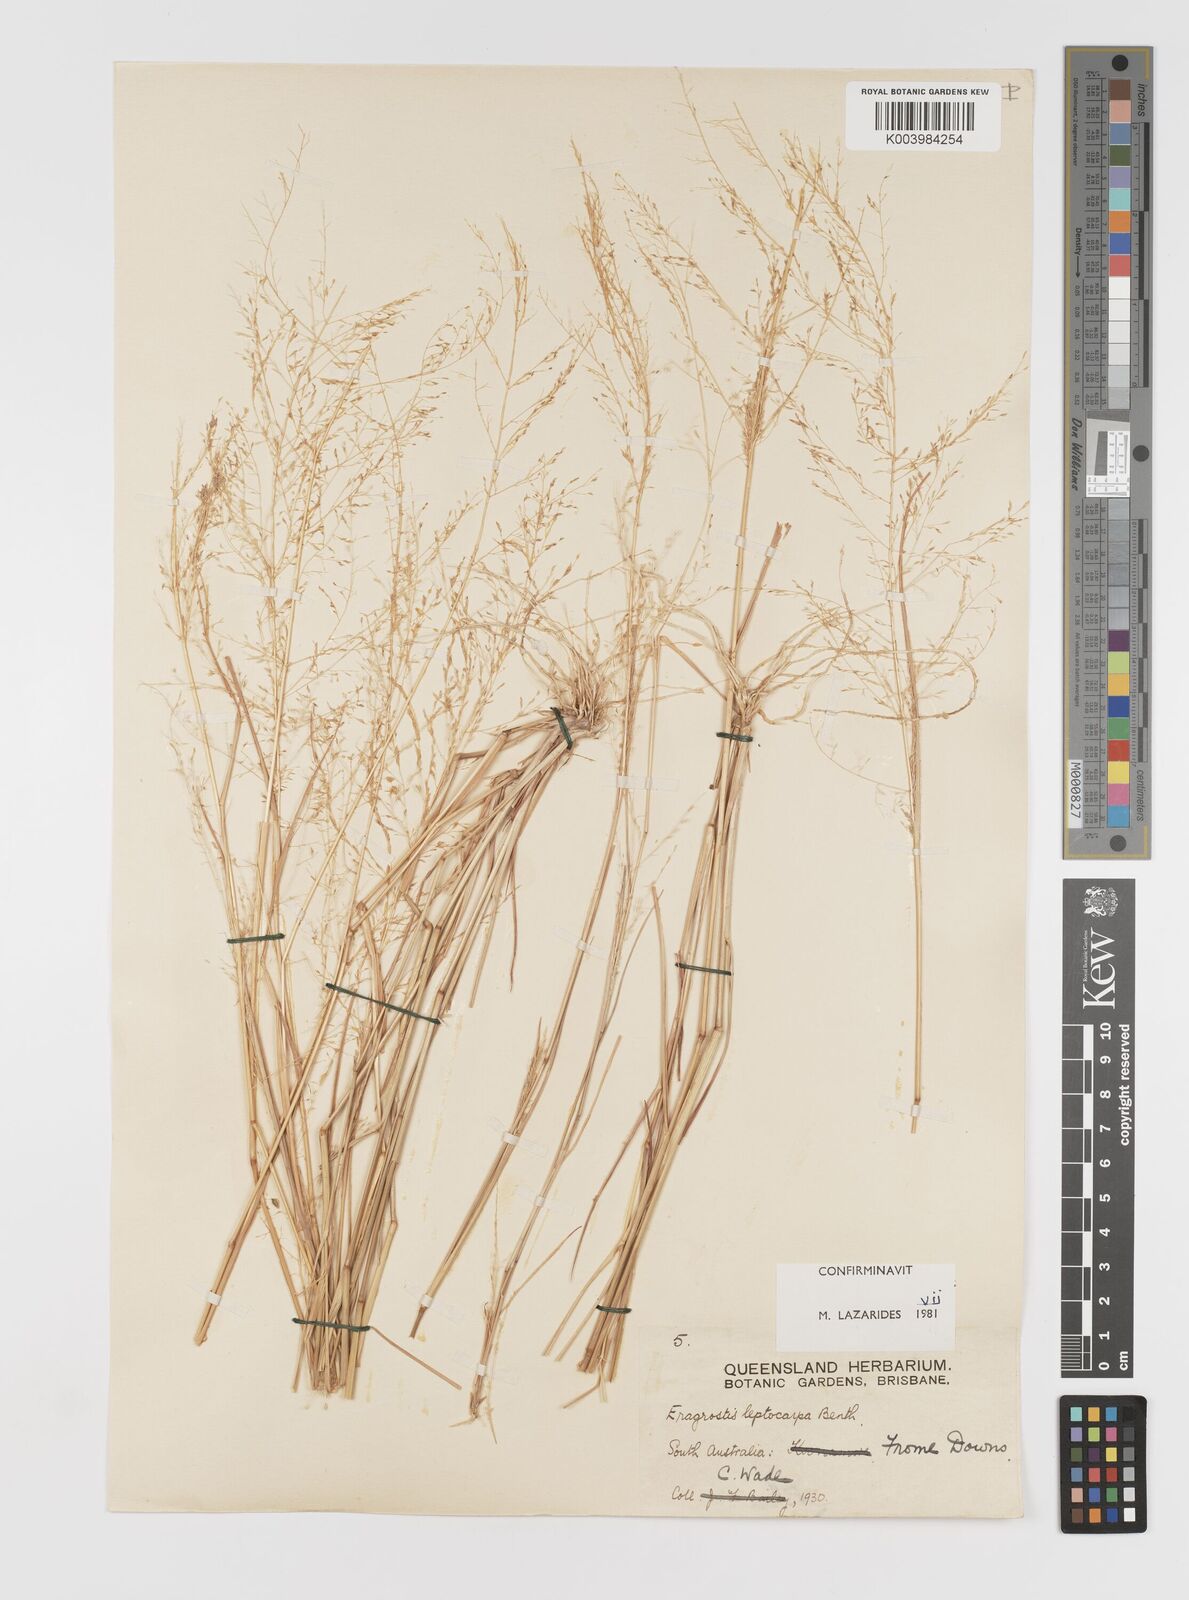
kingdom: Plantae
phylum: Tracheophyta
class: Liliopsida
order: Poales
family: Poaceae
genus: Eragrostis
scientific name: Eragrostis leptocarpa
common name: Drooping love grass
